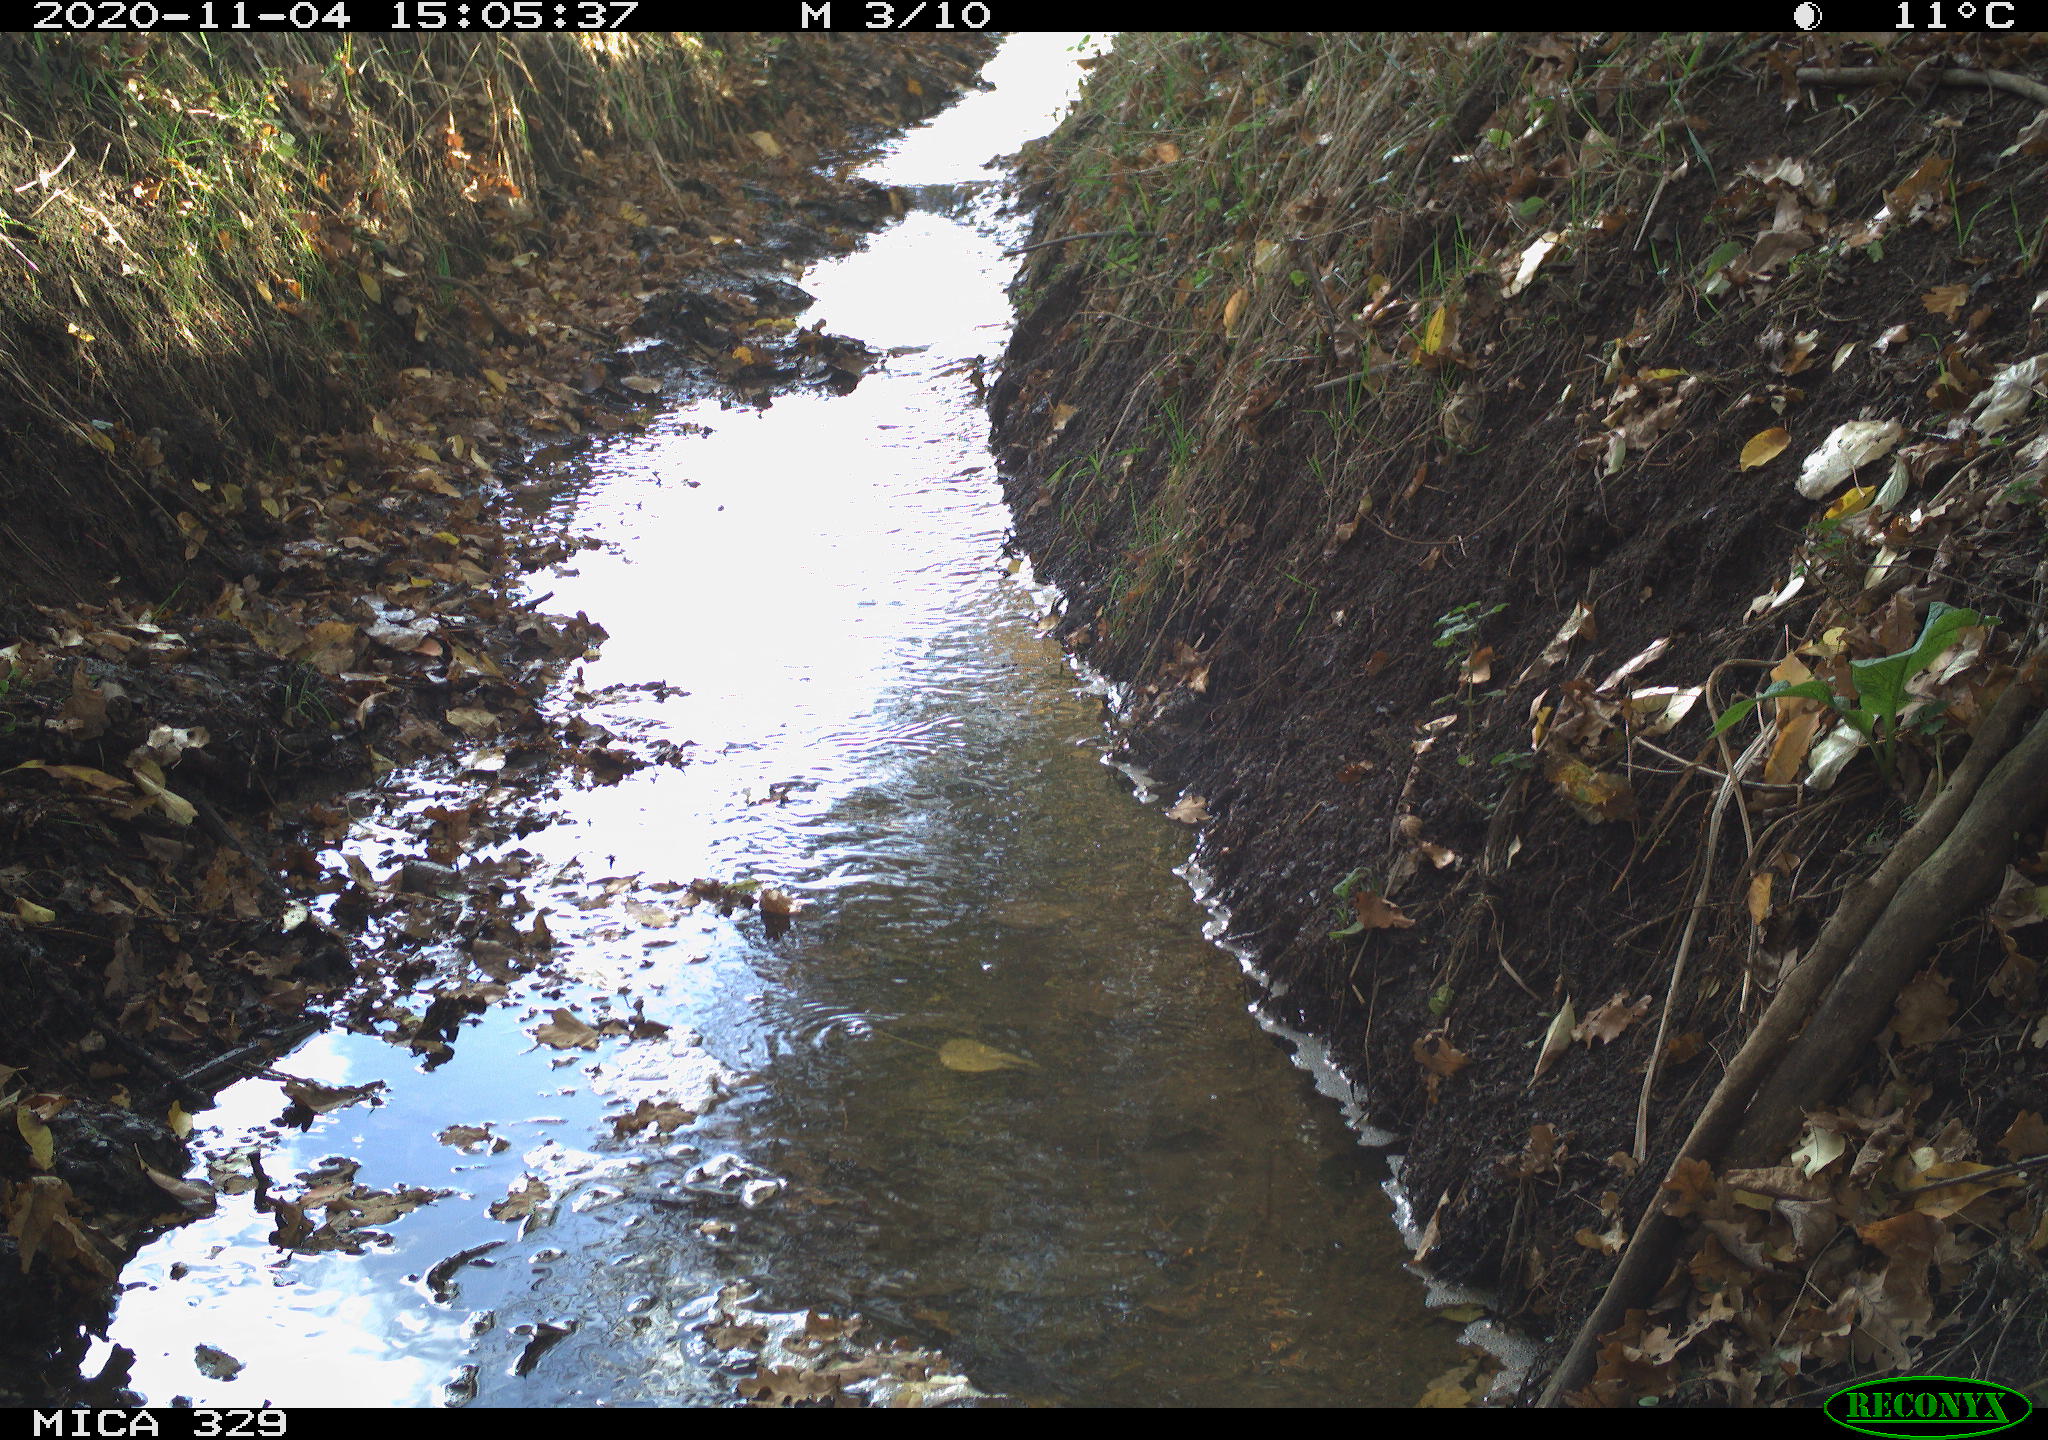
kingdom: Animalia
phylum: Chordata
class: Aves
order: Passeriformes
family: Turdidae
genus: Turdus
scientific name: Turdus merula
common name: Common blackbird
